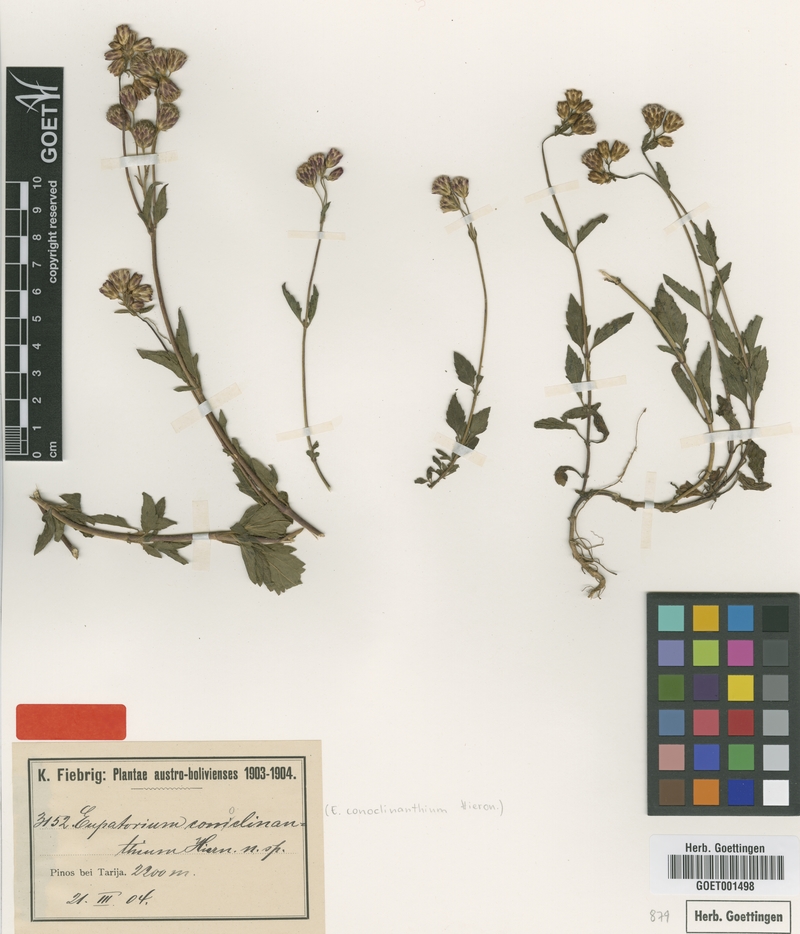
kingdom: Plantae
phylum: Tracheophyta
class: Magnoliopsida
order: Asterales
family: Asteraceae
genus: Praxelis
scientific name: Praxelis conoclinanthia
